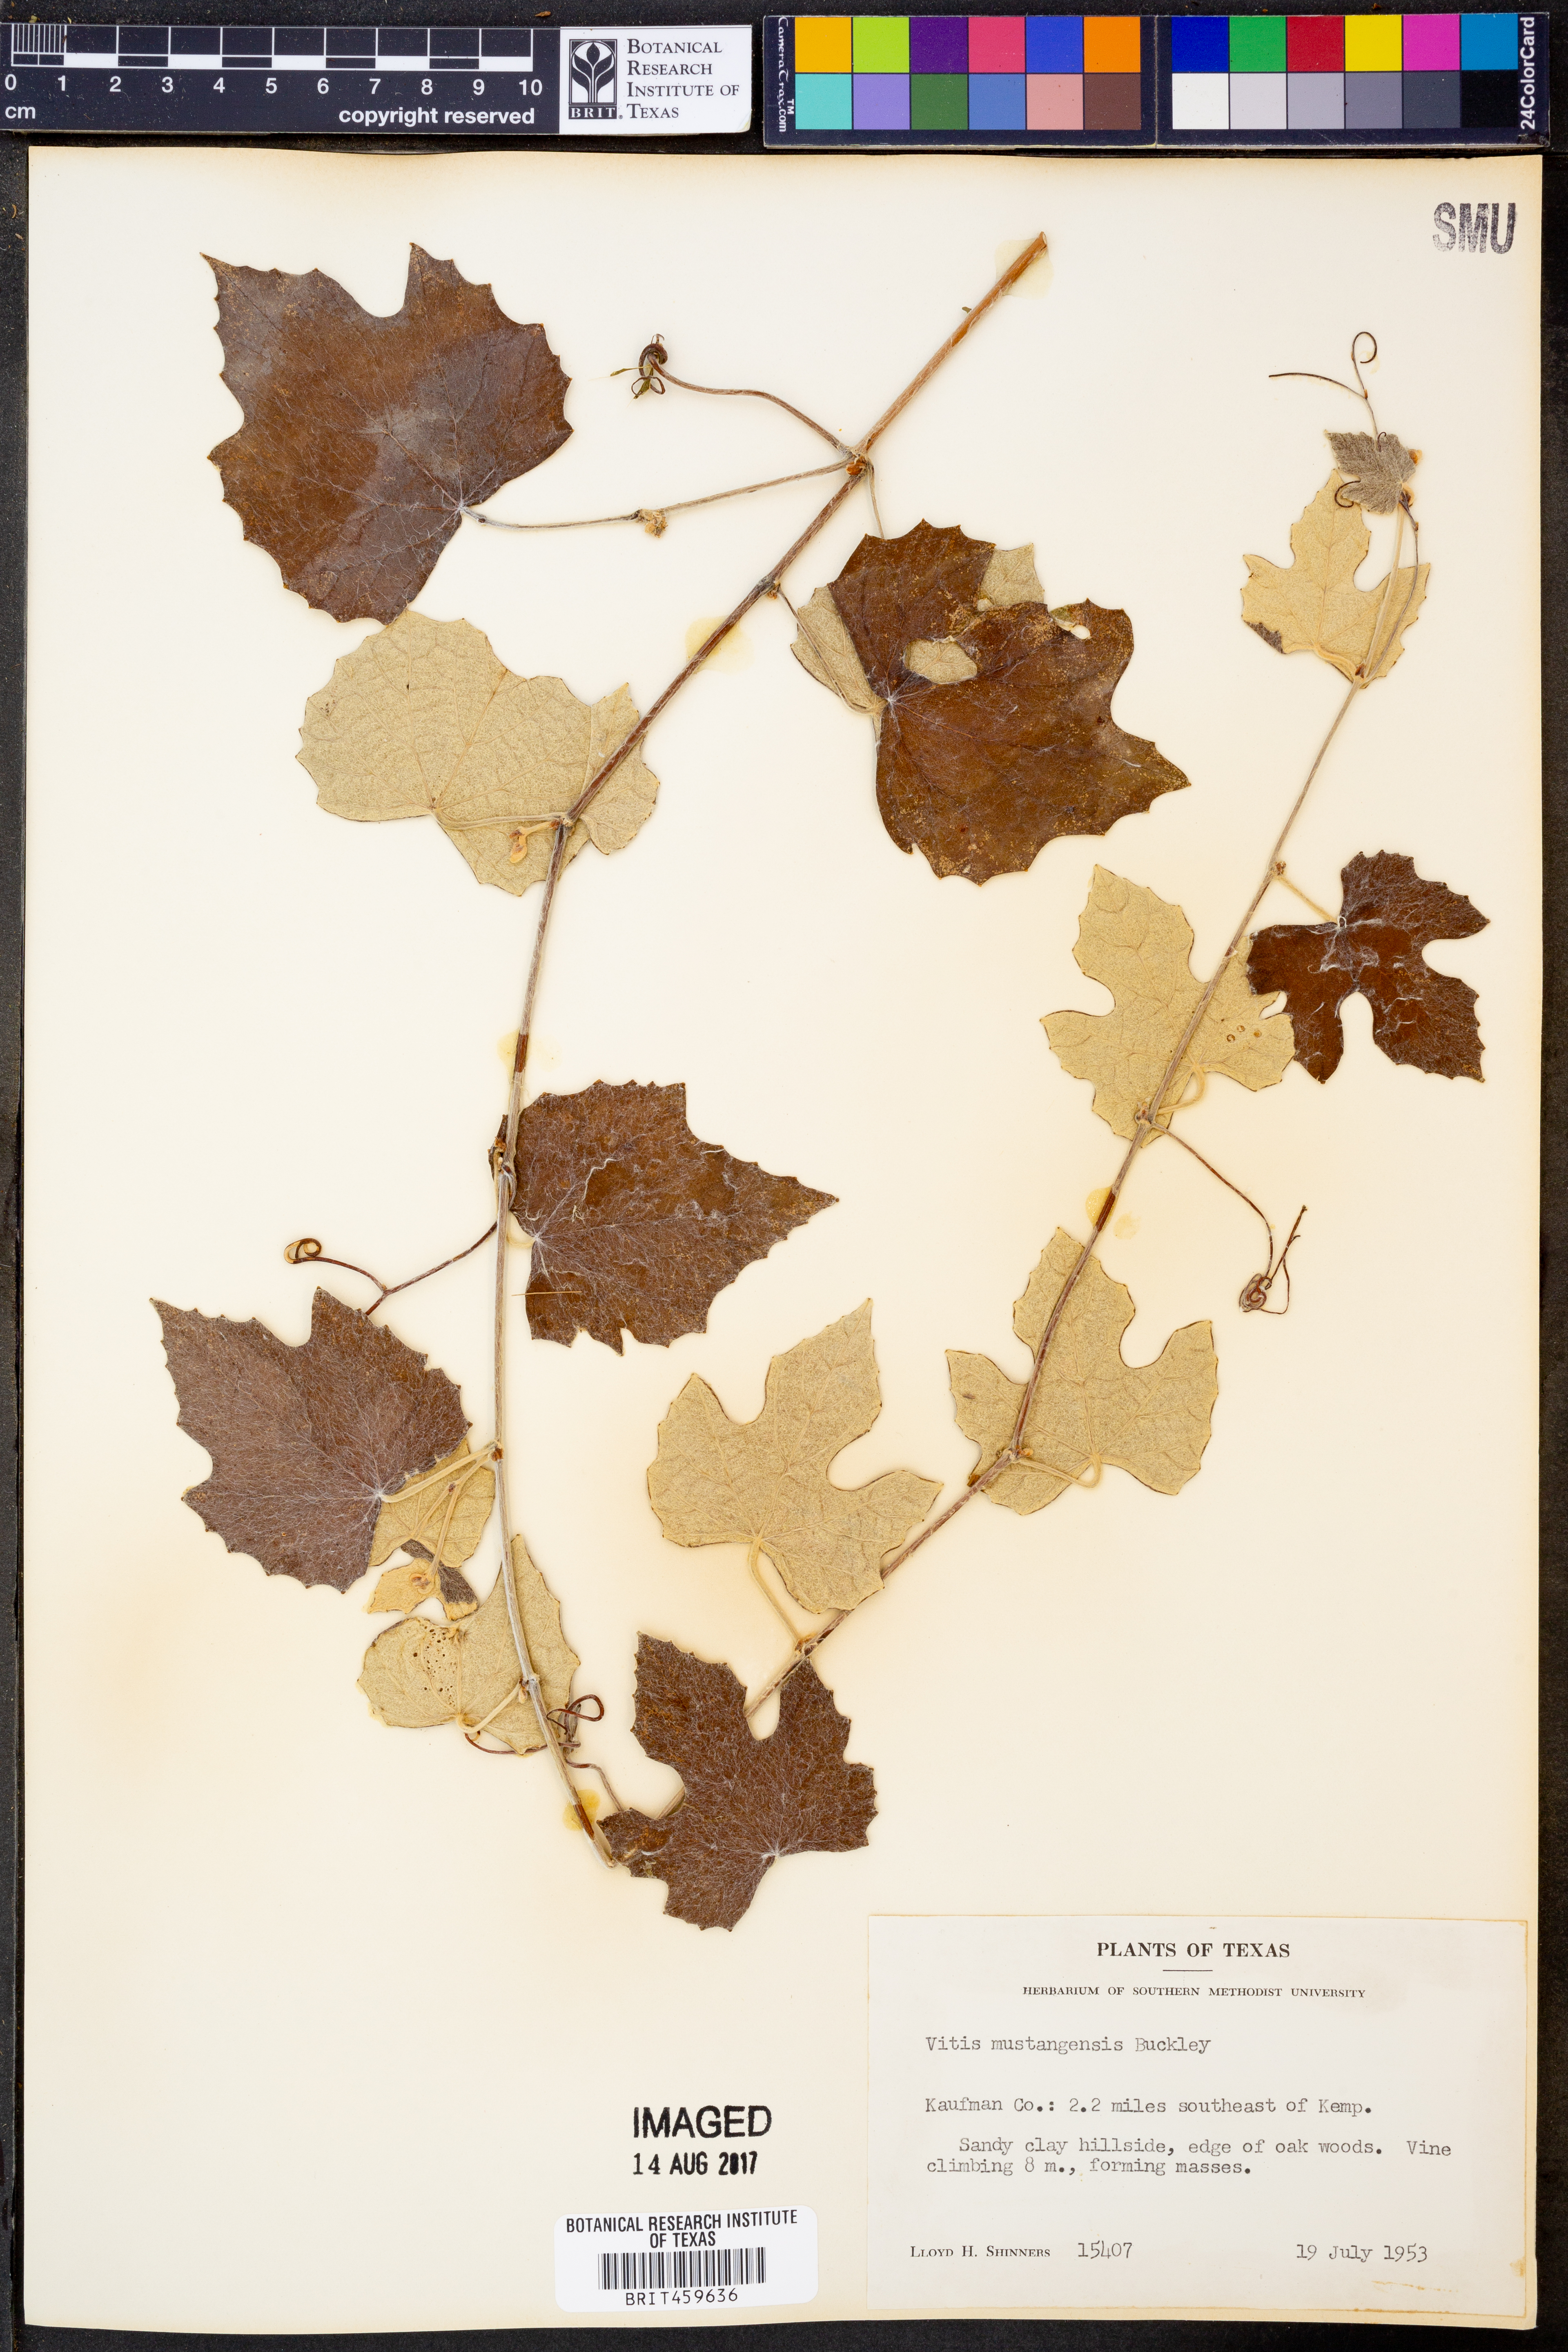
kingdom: Plantae
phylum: Tracheophyta
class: Magnoliopsida
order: Vitales
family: Vitaceae
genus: Vitis
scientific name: Vitis mustangensis
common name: Mustang grape
